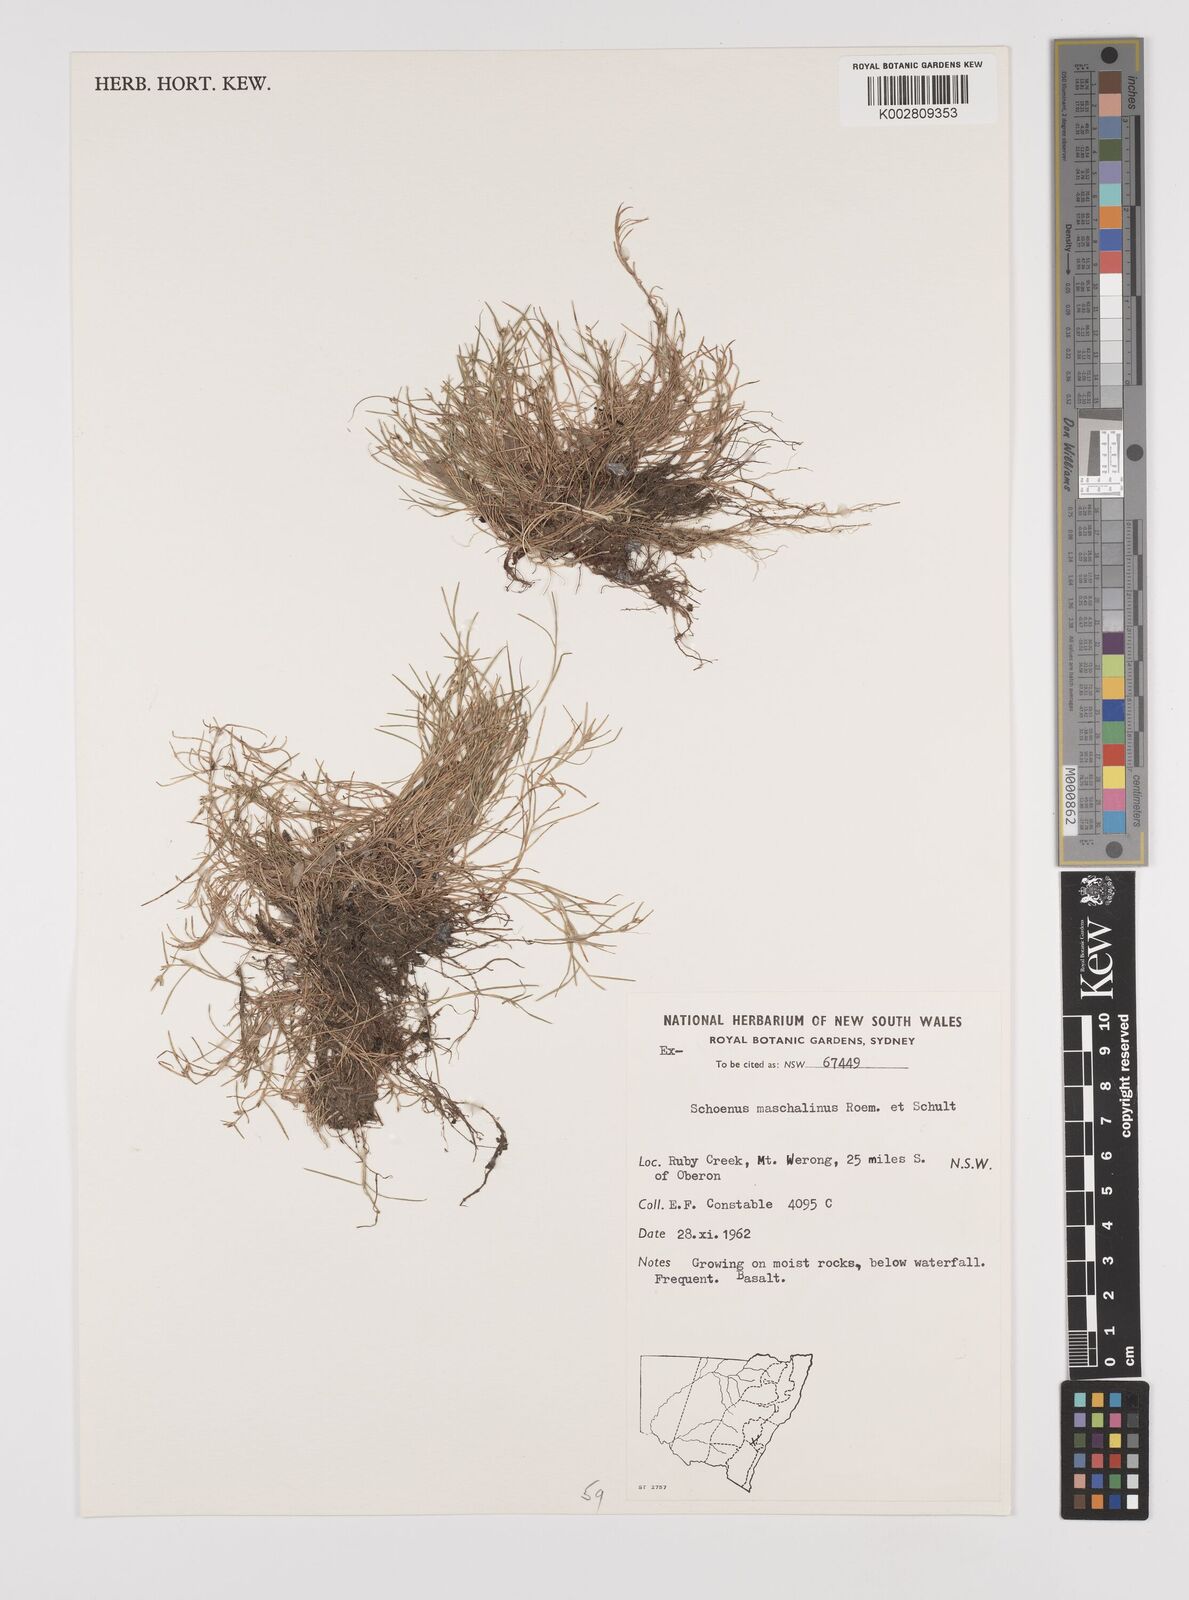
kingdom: Plantae
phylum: Tracheophyta
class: Liliopsida
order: Poales
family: Cyperaceae
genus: Schoenus
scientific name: Schoenus maschalinus
